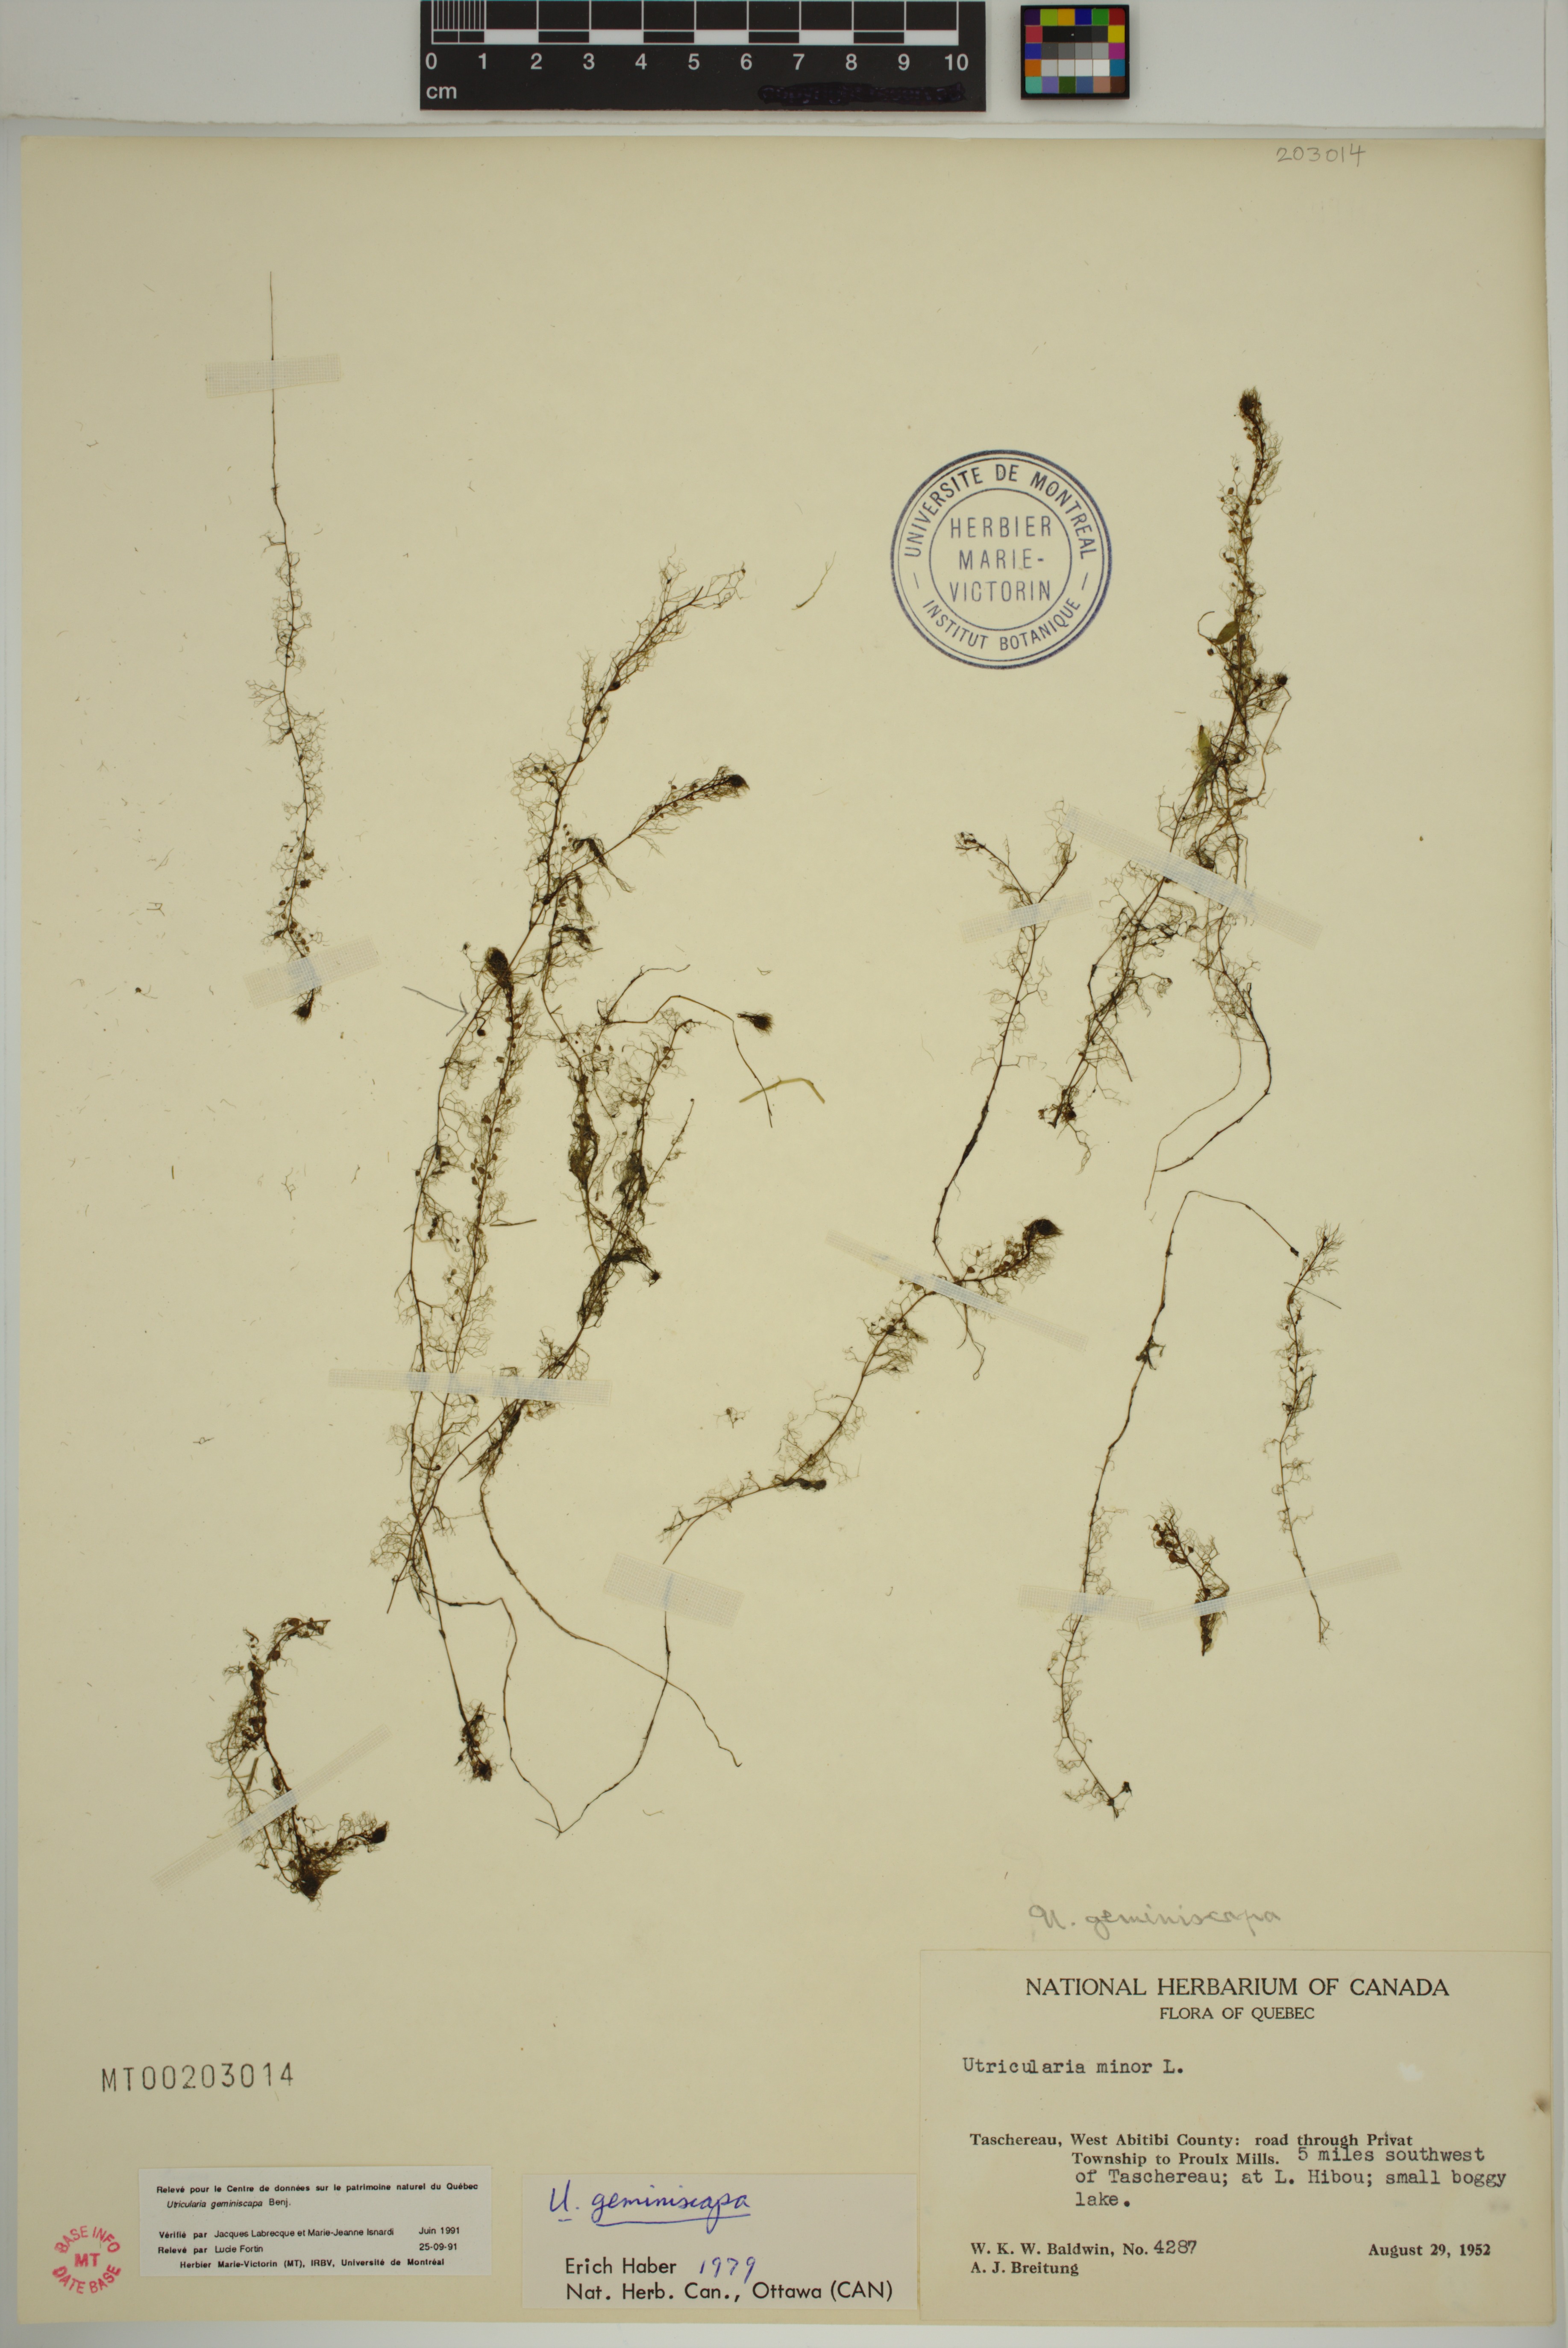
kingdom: Plantae
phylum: Tracheophyta
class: Magnoliopsida
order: Lamiales
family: Lentibulariaceae
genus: Utricularia
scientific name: Utricularia geminiscapa
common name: Hidden-fruit bladderwort
